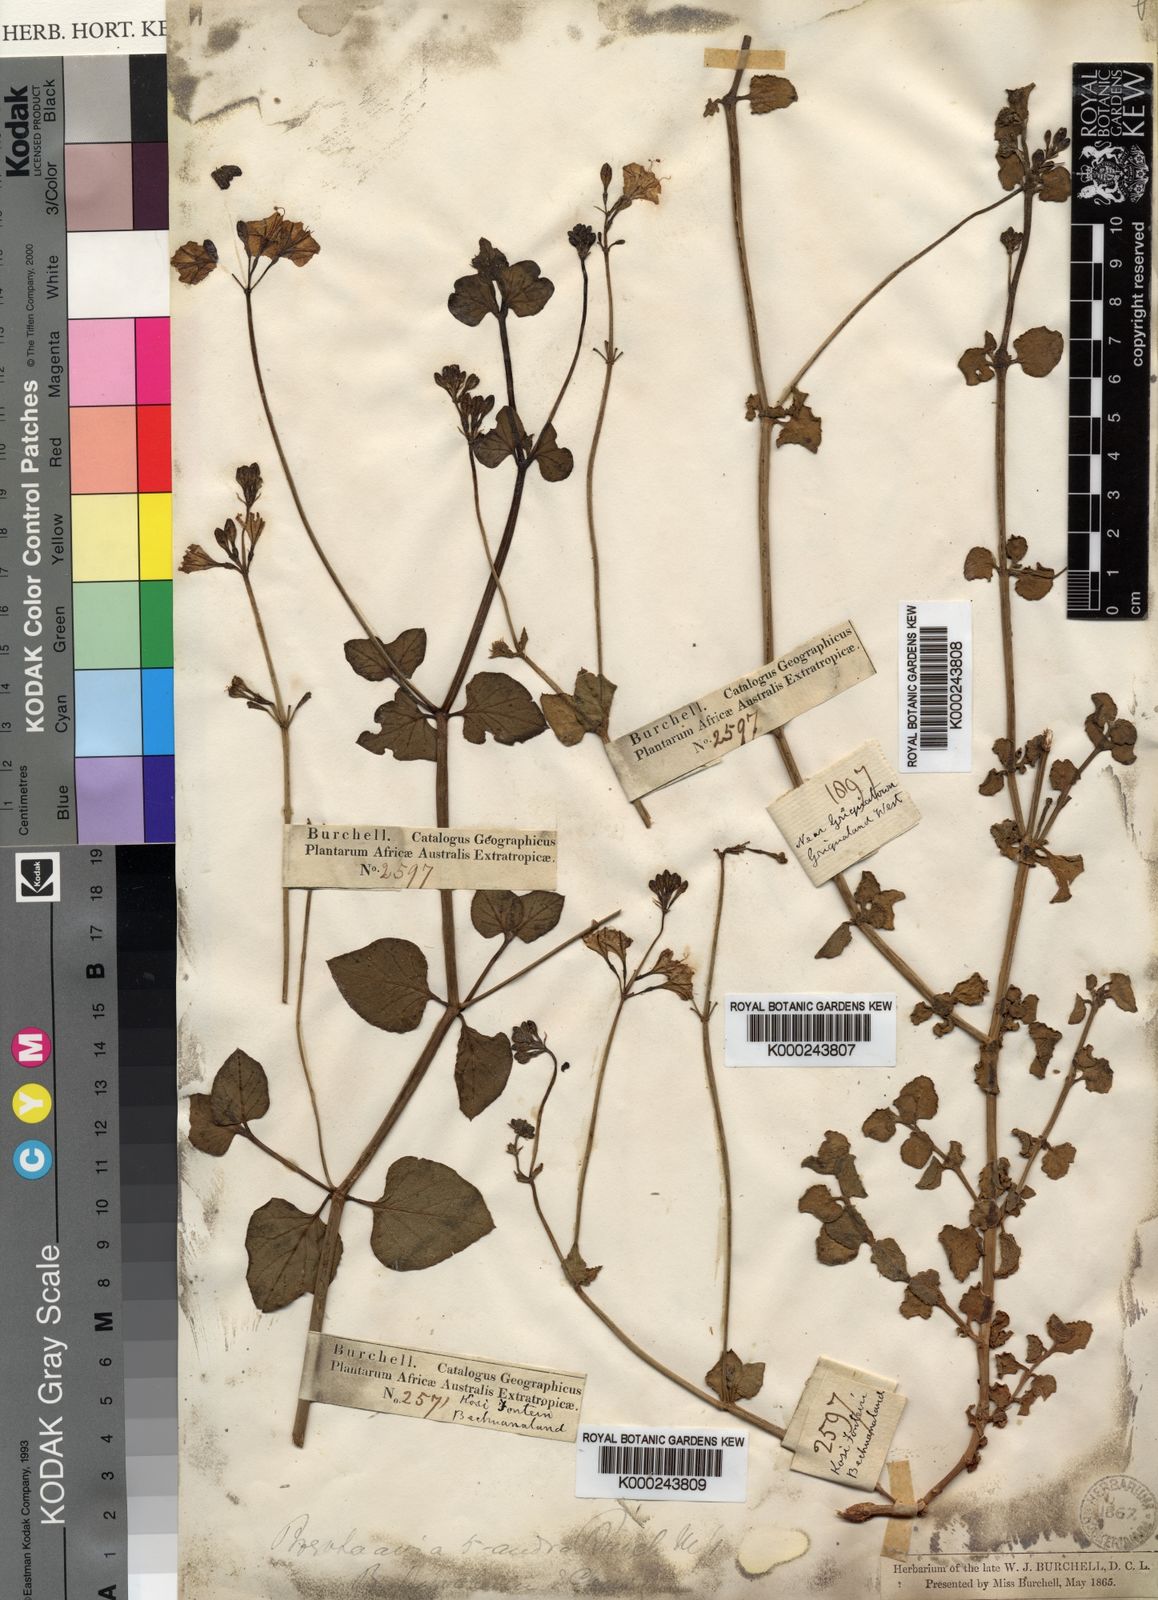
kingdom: Plantae
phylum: Tracheophyta
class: Magnoliopsida
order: Caryophyllales
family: Nyctaginaceae
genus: Commicarpus
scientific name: Commicarpus pentandrus
